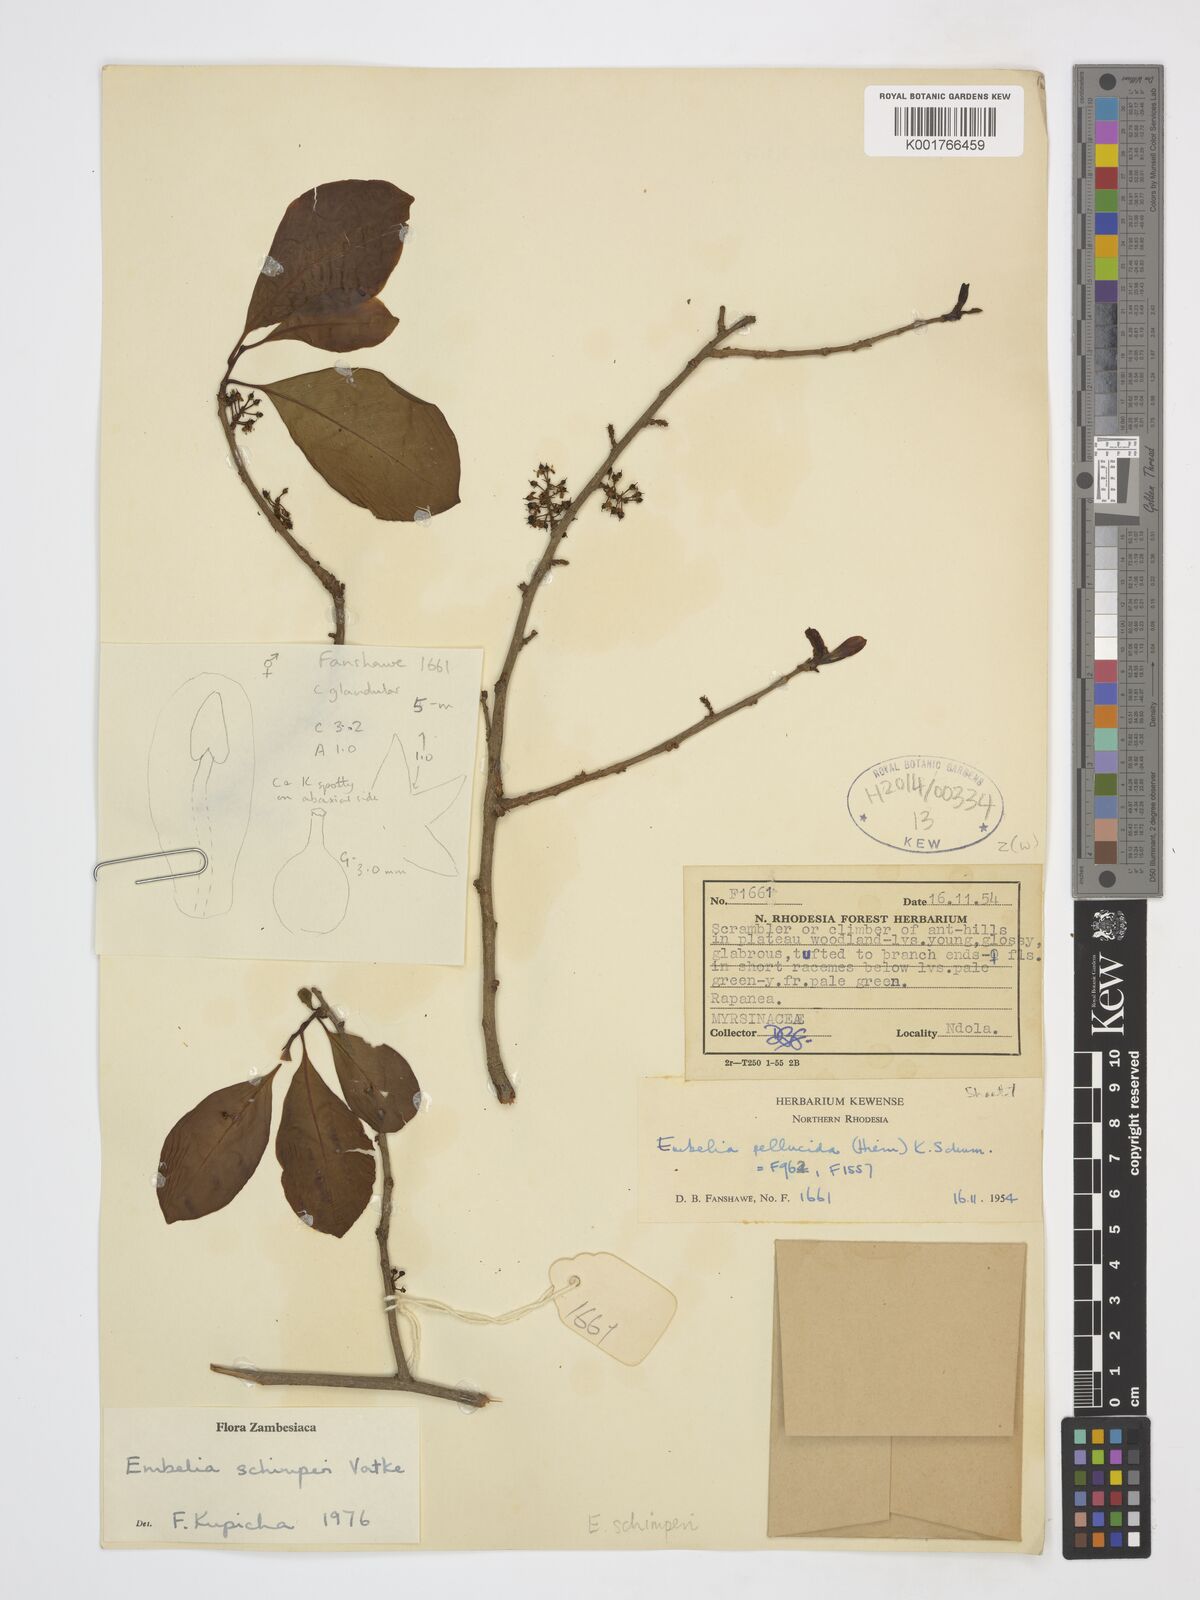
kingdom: Plantae
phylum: Tracheophyta
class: Magnoliopsida
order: Ericales
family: Primulaceae
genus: Embelia
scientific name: Embelia schimperi
